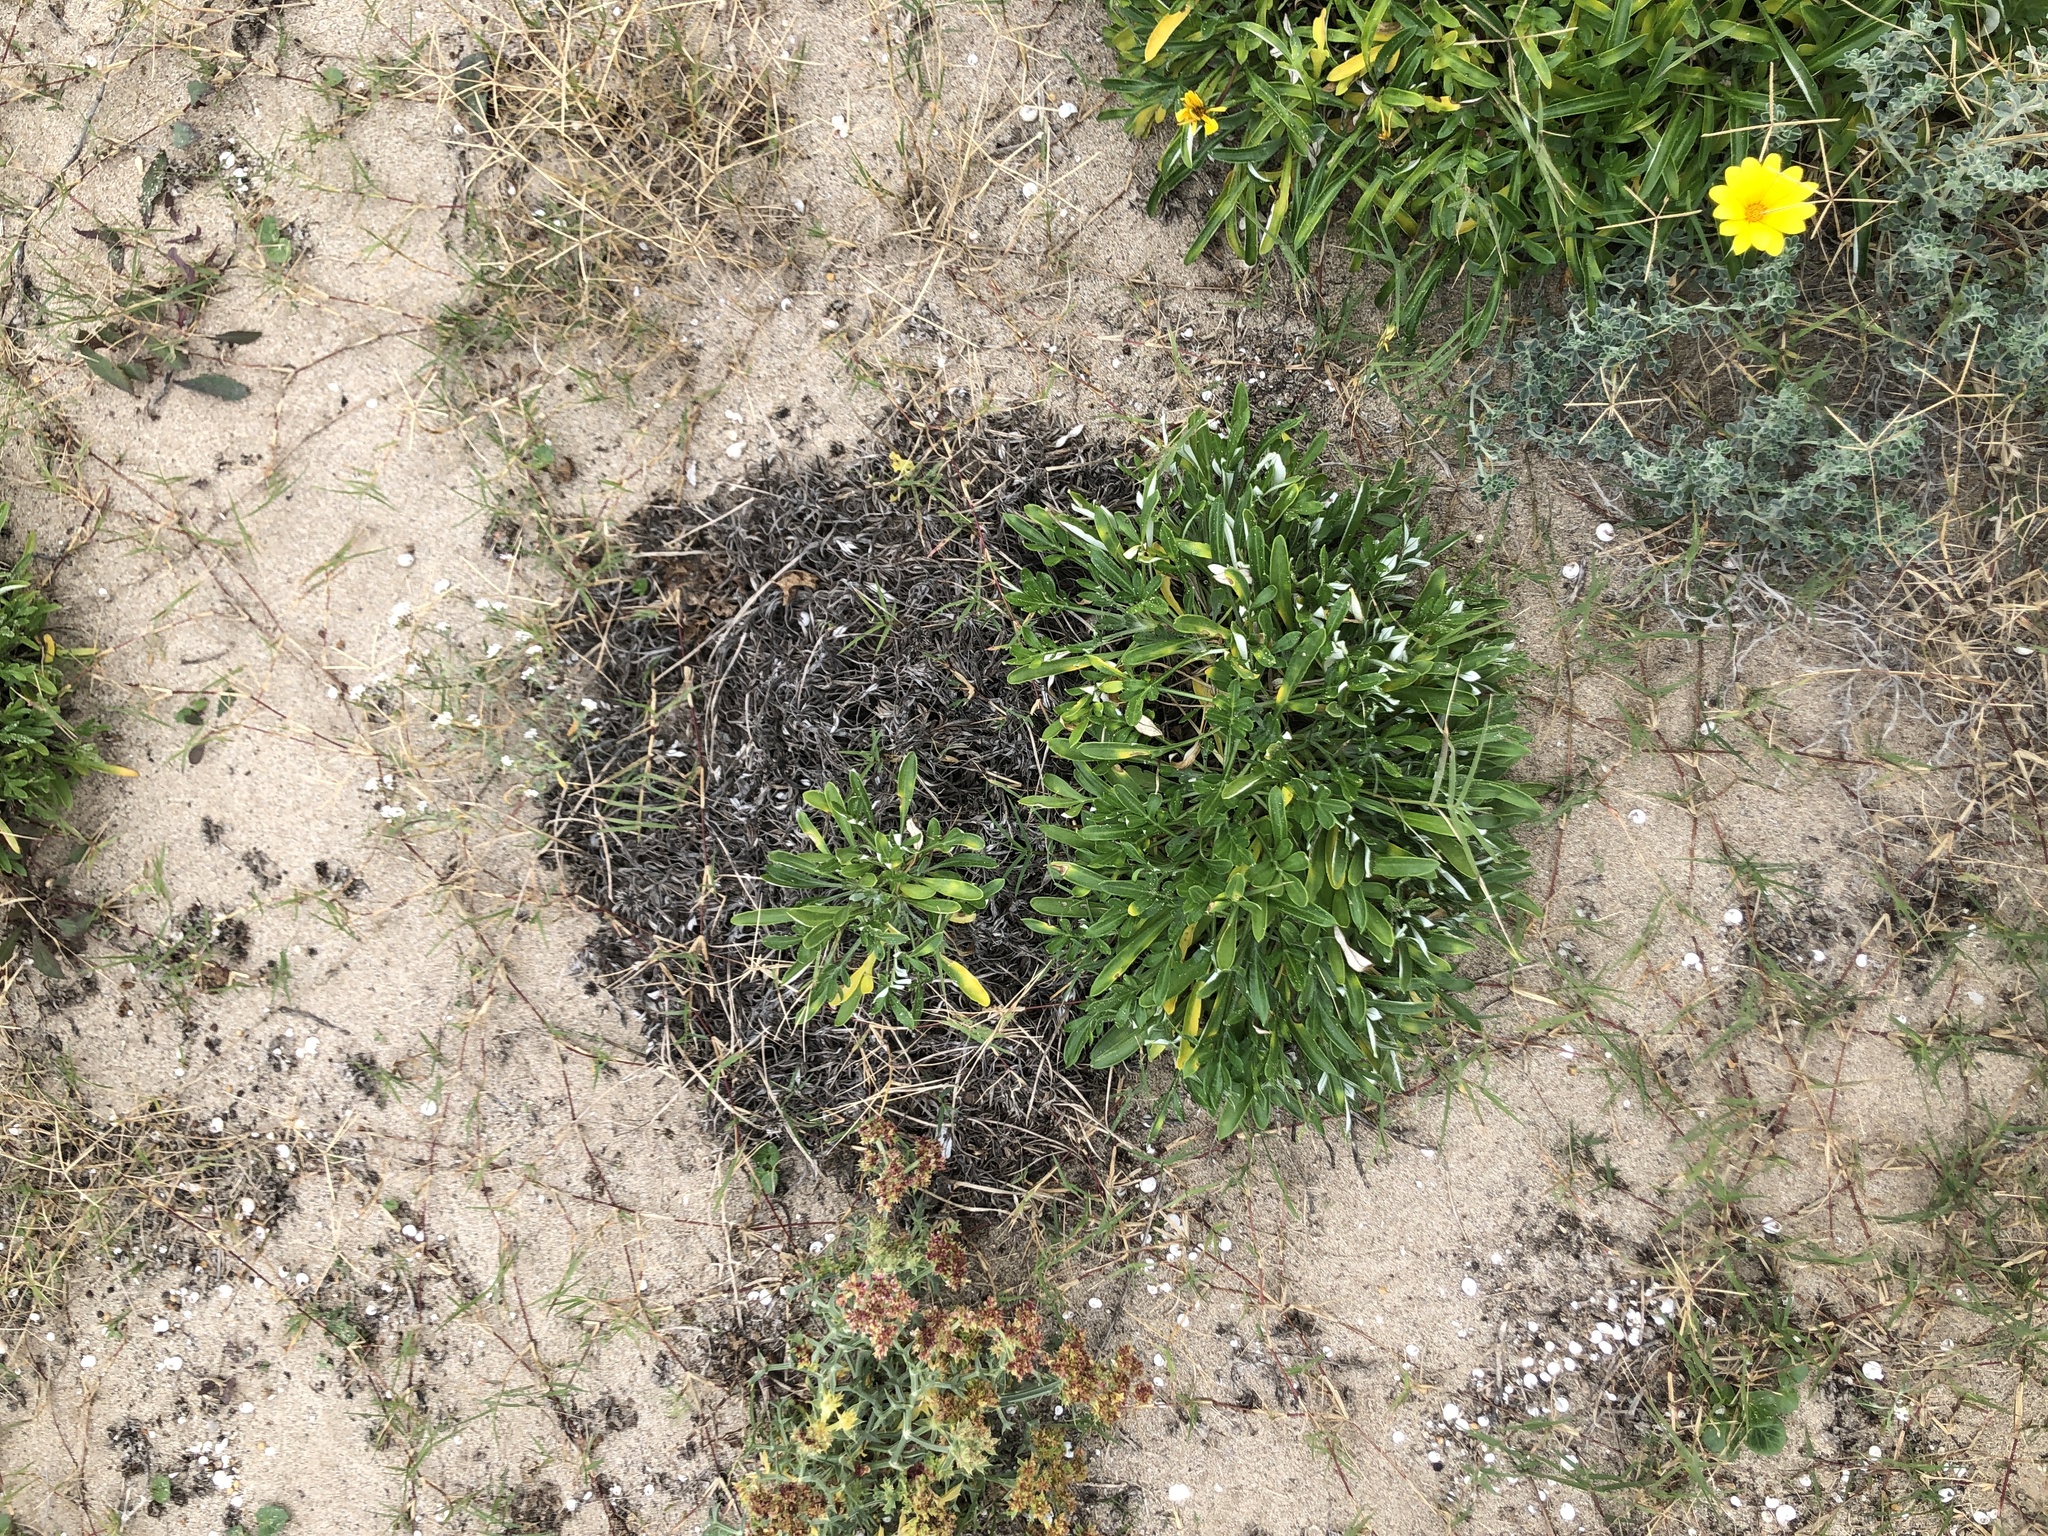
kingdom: Plantae
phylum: Tracheophyta
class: Magnoliopsida
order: Asterales
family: Asteraceae
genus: Gazania
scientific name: Gazania rigens
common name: Treasureflower
